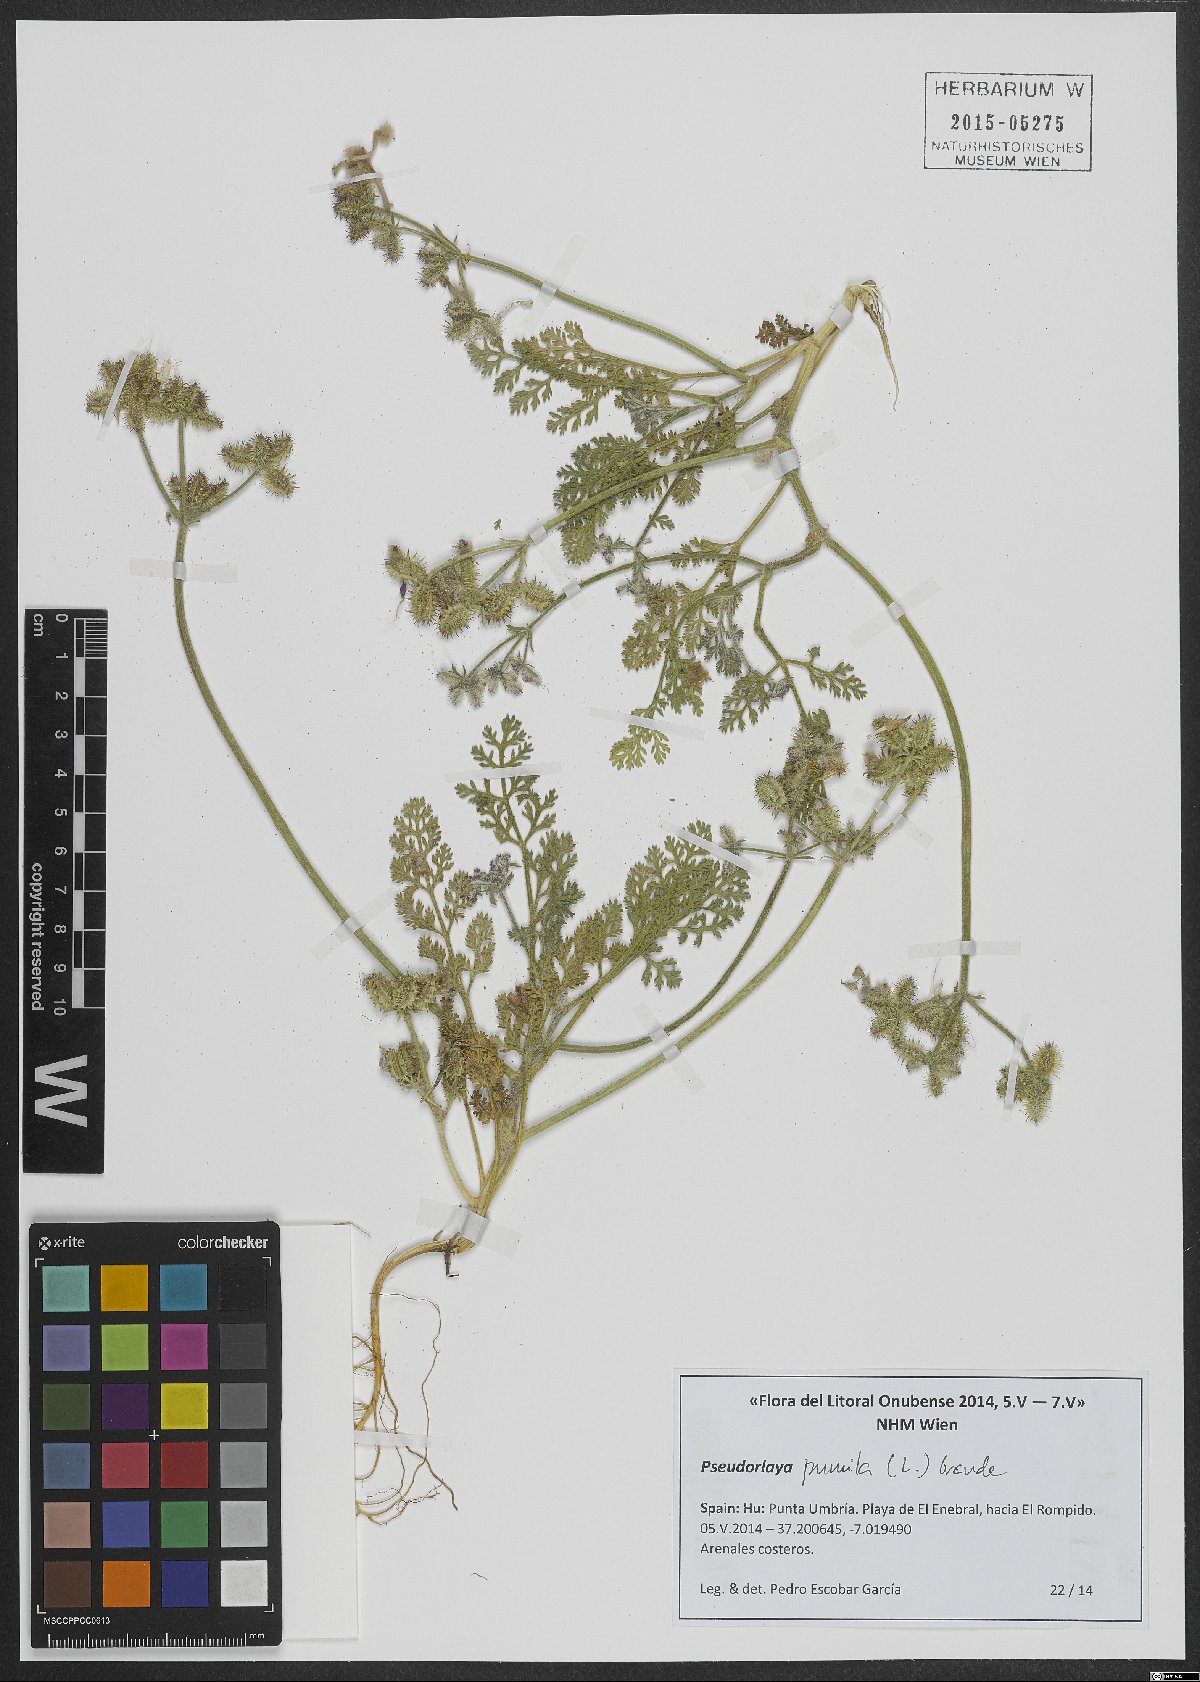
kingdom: Plantae
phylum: Tracheophyta
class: Magnoliopsida
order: Apiales
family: Apiaceae
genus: Daucus
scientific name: Daucus pumilus
